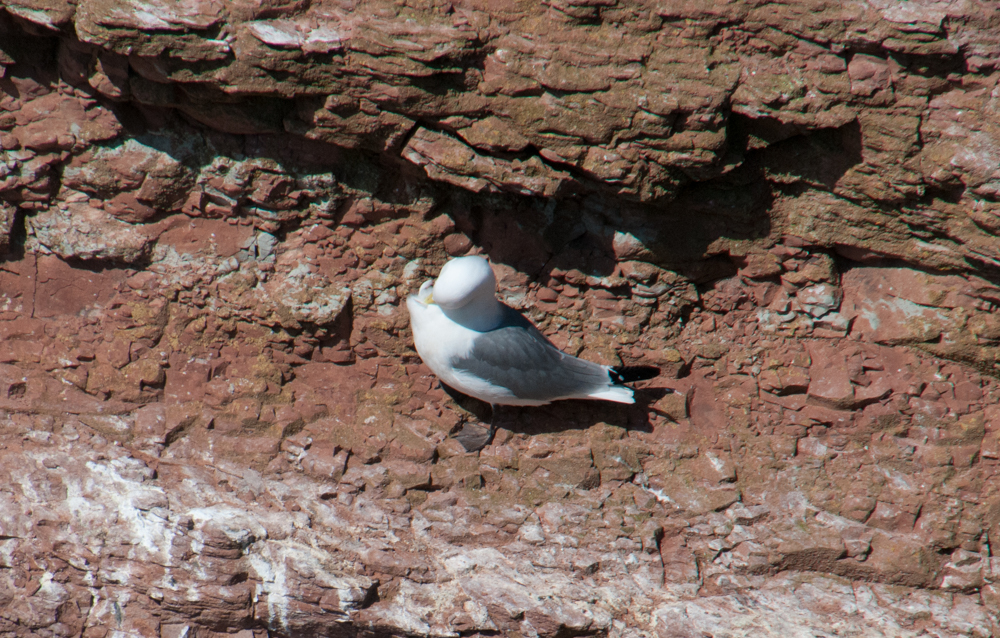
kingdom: Animalia
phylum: Chordata
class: Aves
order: Charadriiformes
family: Laridae
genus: Rissa
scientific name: Rissa tridactyla
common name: Black-legged kittiwake
